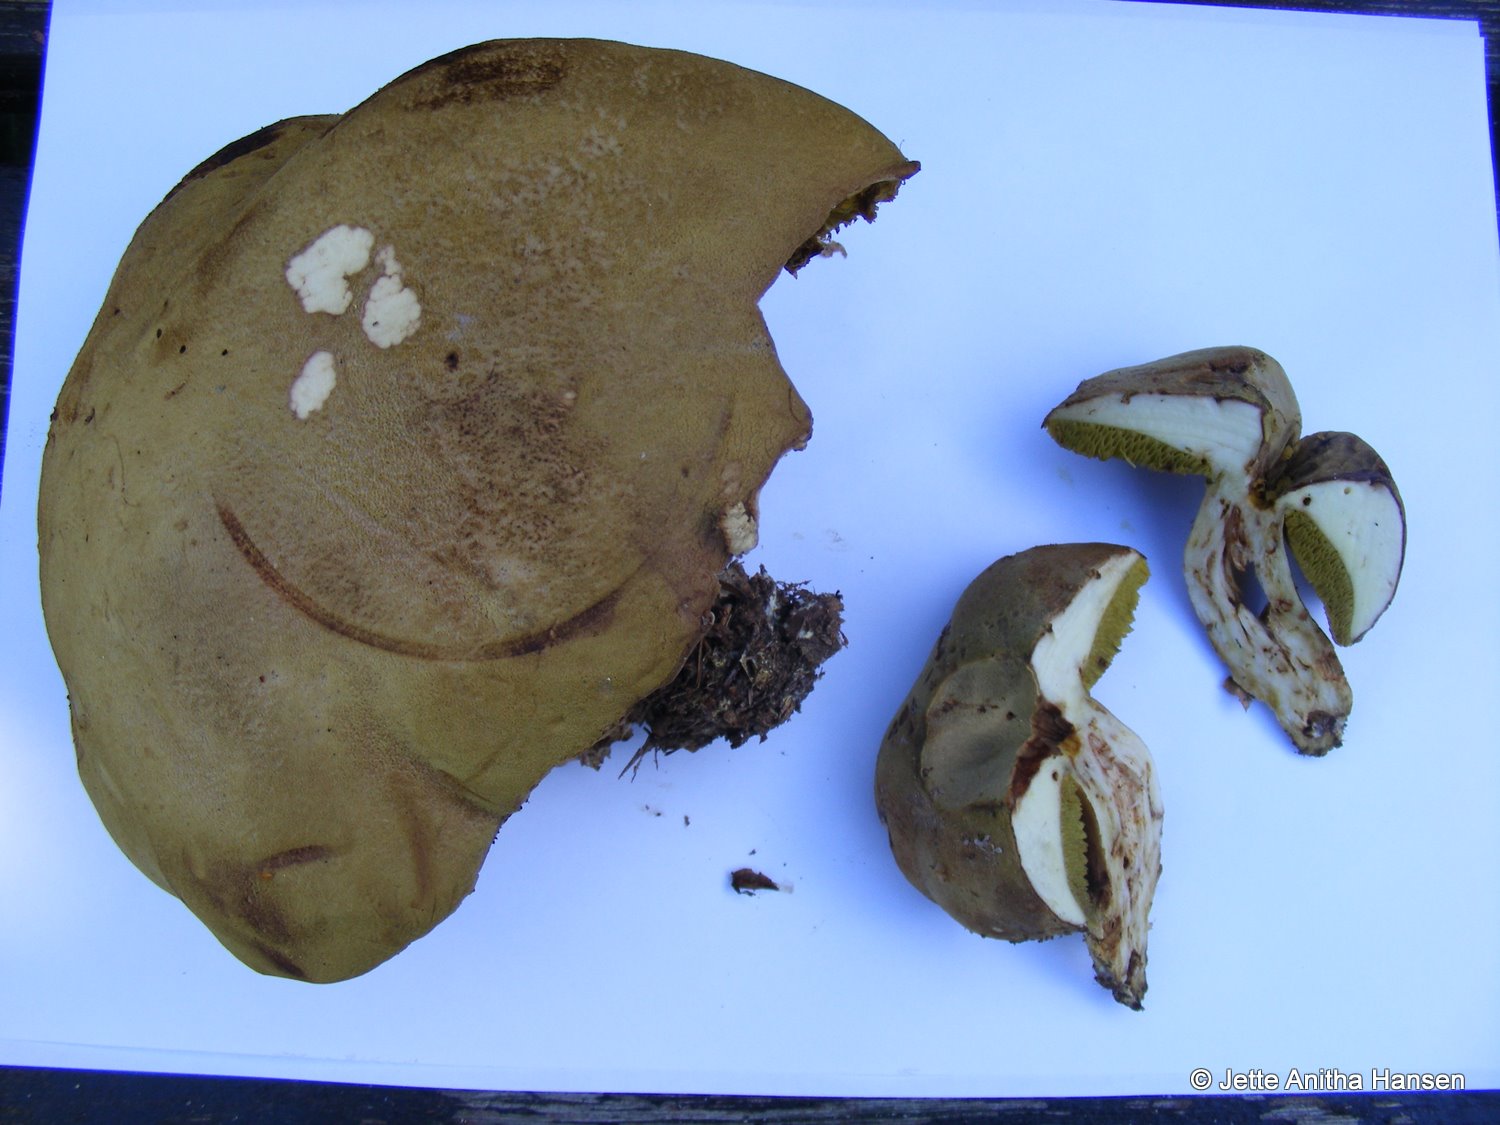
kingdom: Fungi
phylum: Basidiomycota
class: Agaricomycetes
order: Boletales
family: Boletaceae
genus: Xerocomus
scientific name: Xerocomus ferrugineus
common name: vaskeskinds-rørhat
